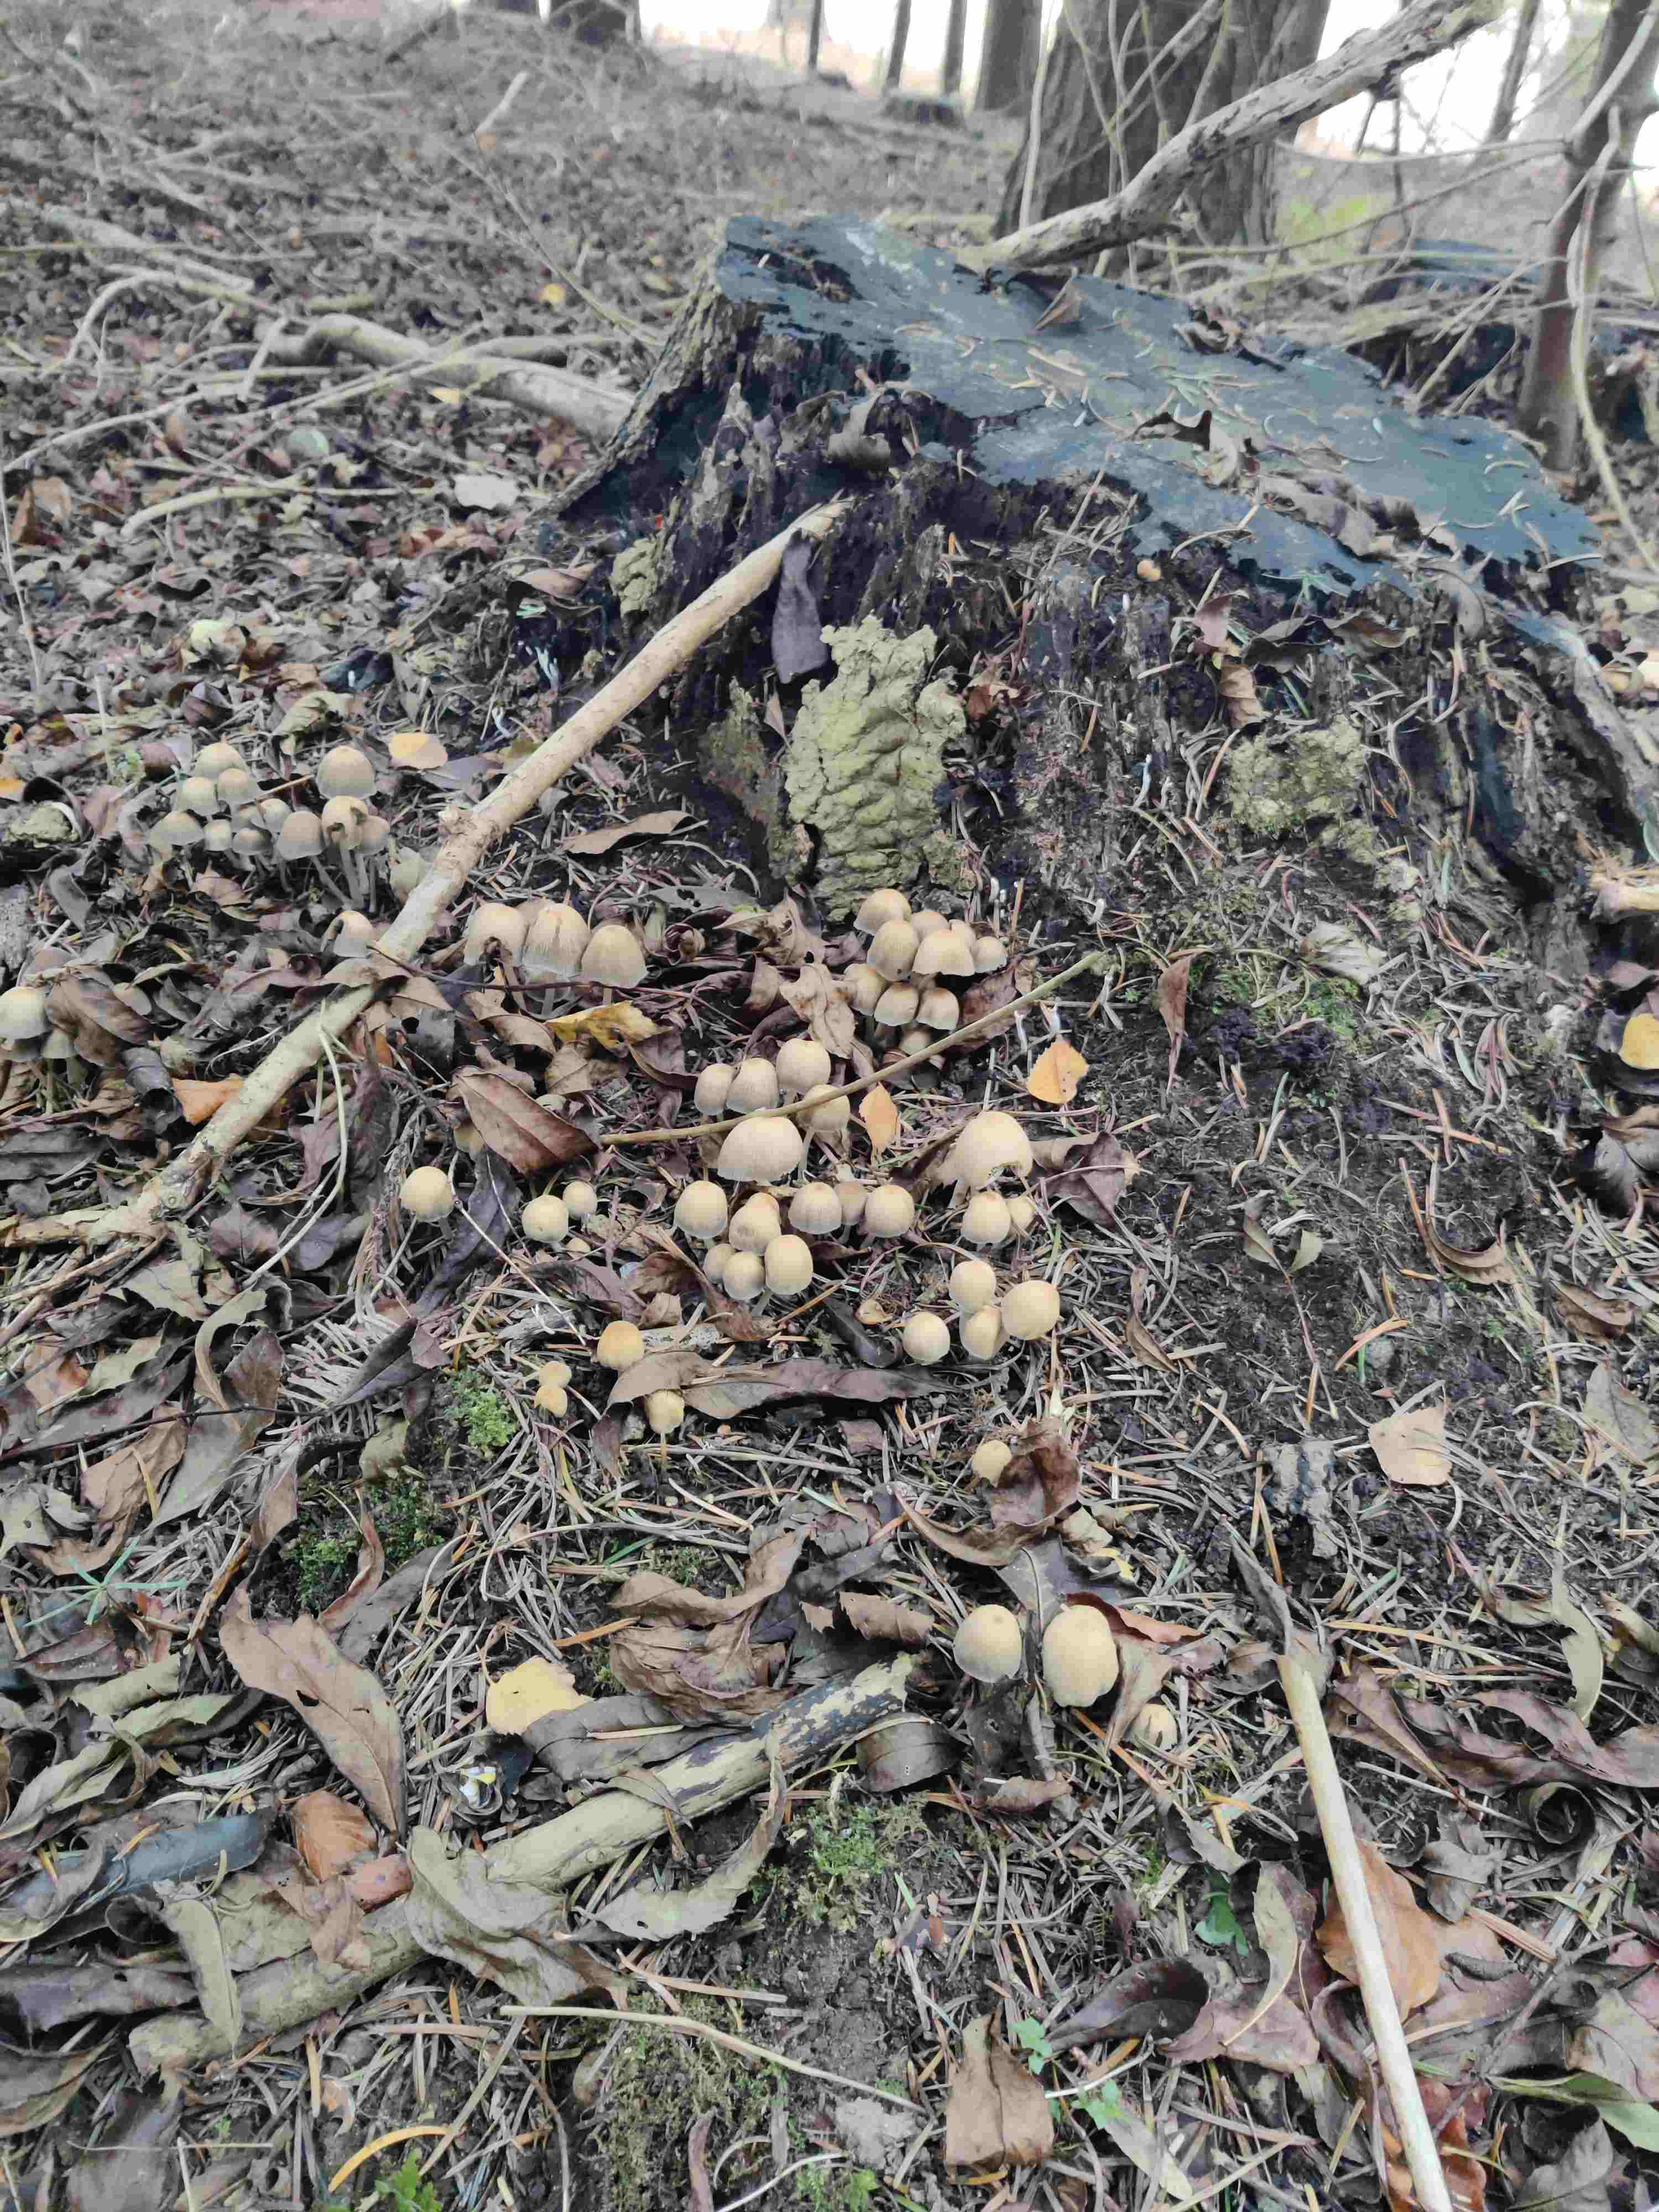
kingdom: Fungi
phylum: Basidiomycota
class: Agaricomycetes
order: Agaricales
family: Psathyrellaceae
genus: Coprinellus
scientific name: Coprinellus micaceus
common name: glimmer-blækhat
